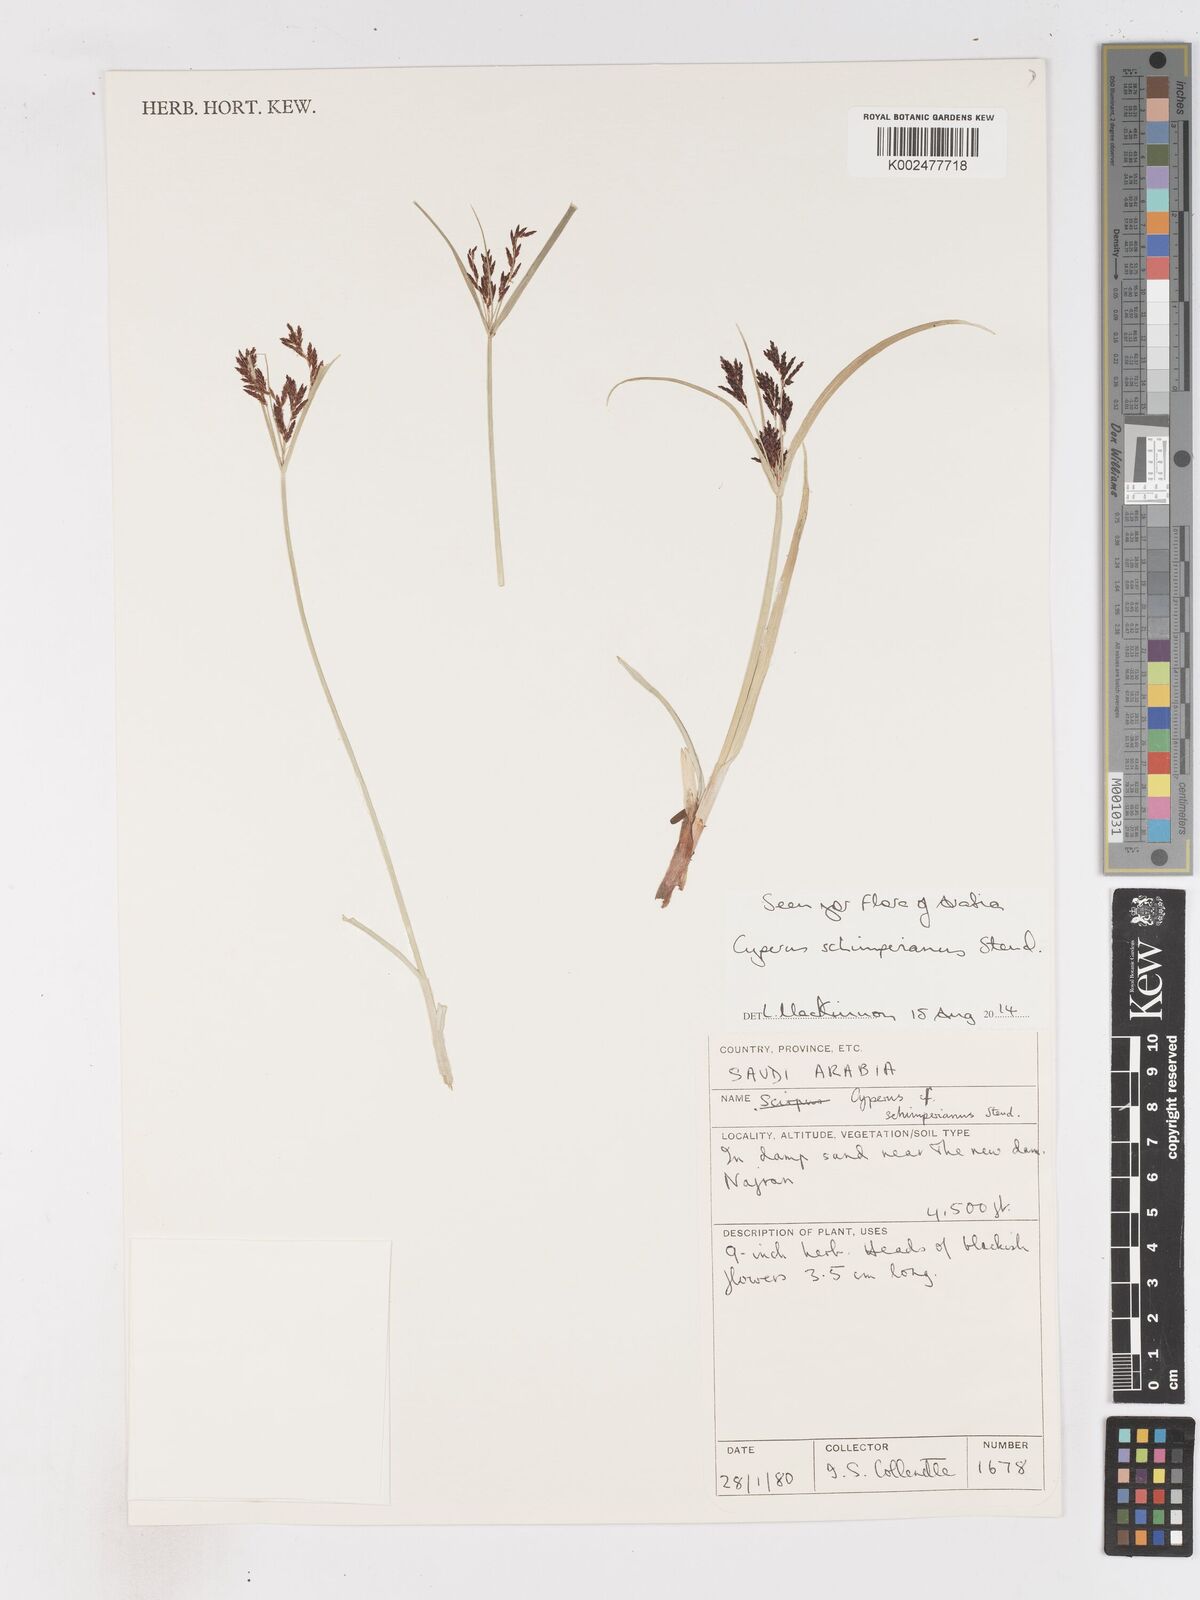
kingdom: Plantae
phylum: Tracheophyta
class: Liliopsida
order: Poales
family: Cyperaceae
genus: Cyperus
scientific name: Cyperus schimperianus
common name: Schimper flatsedge
